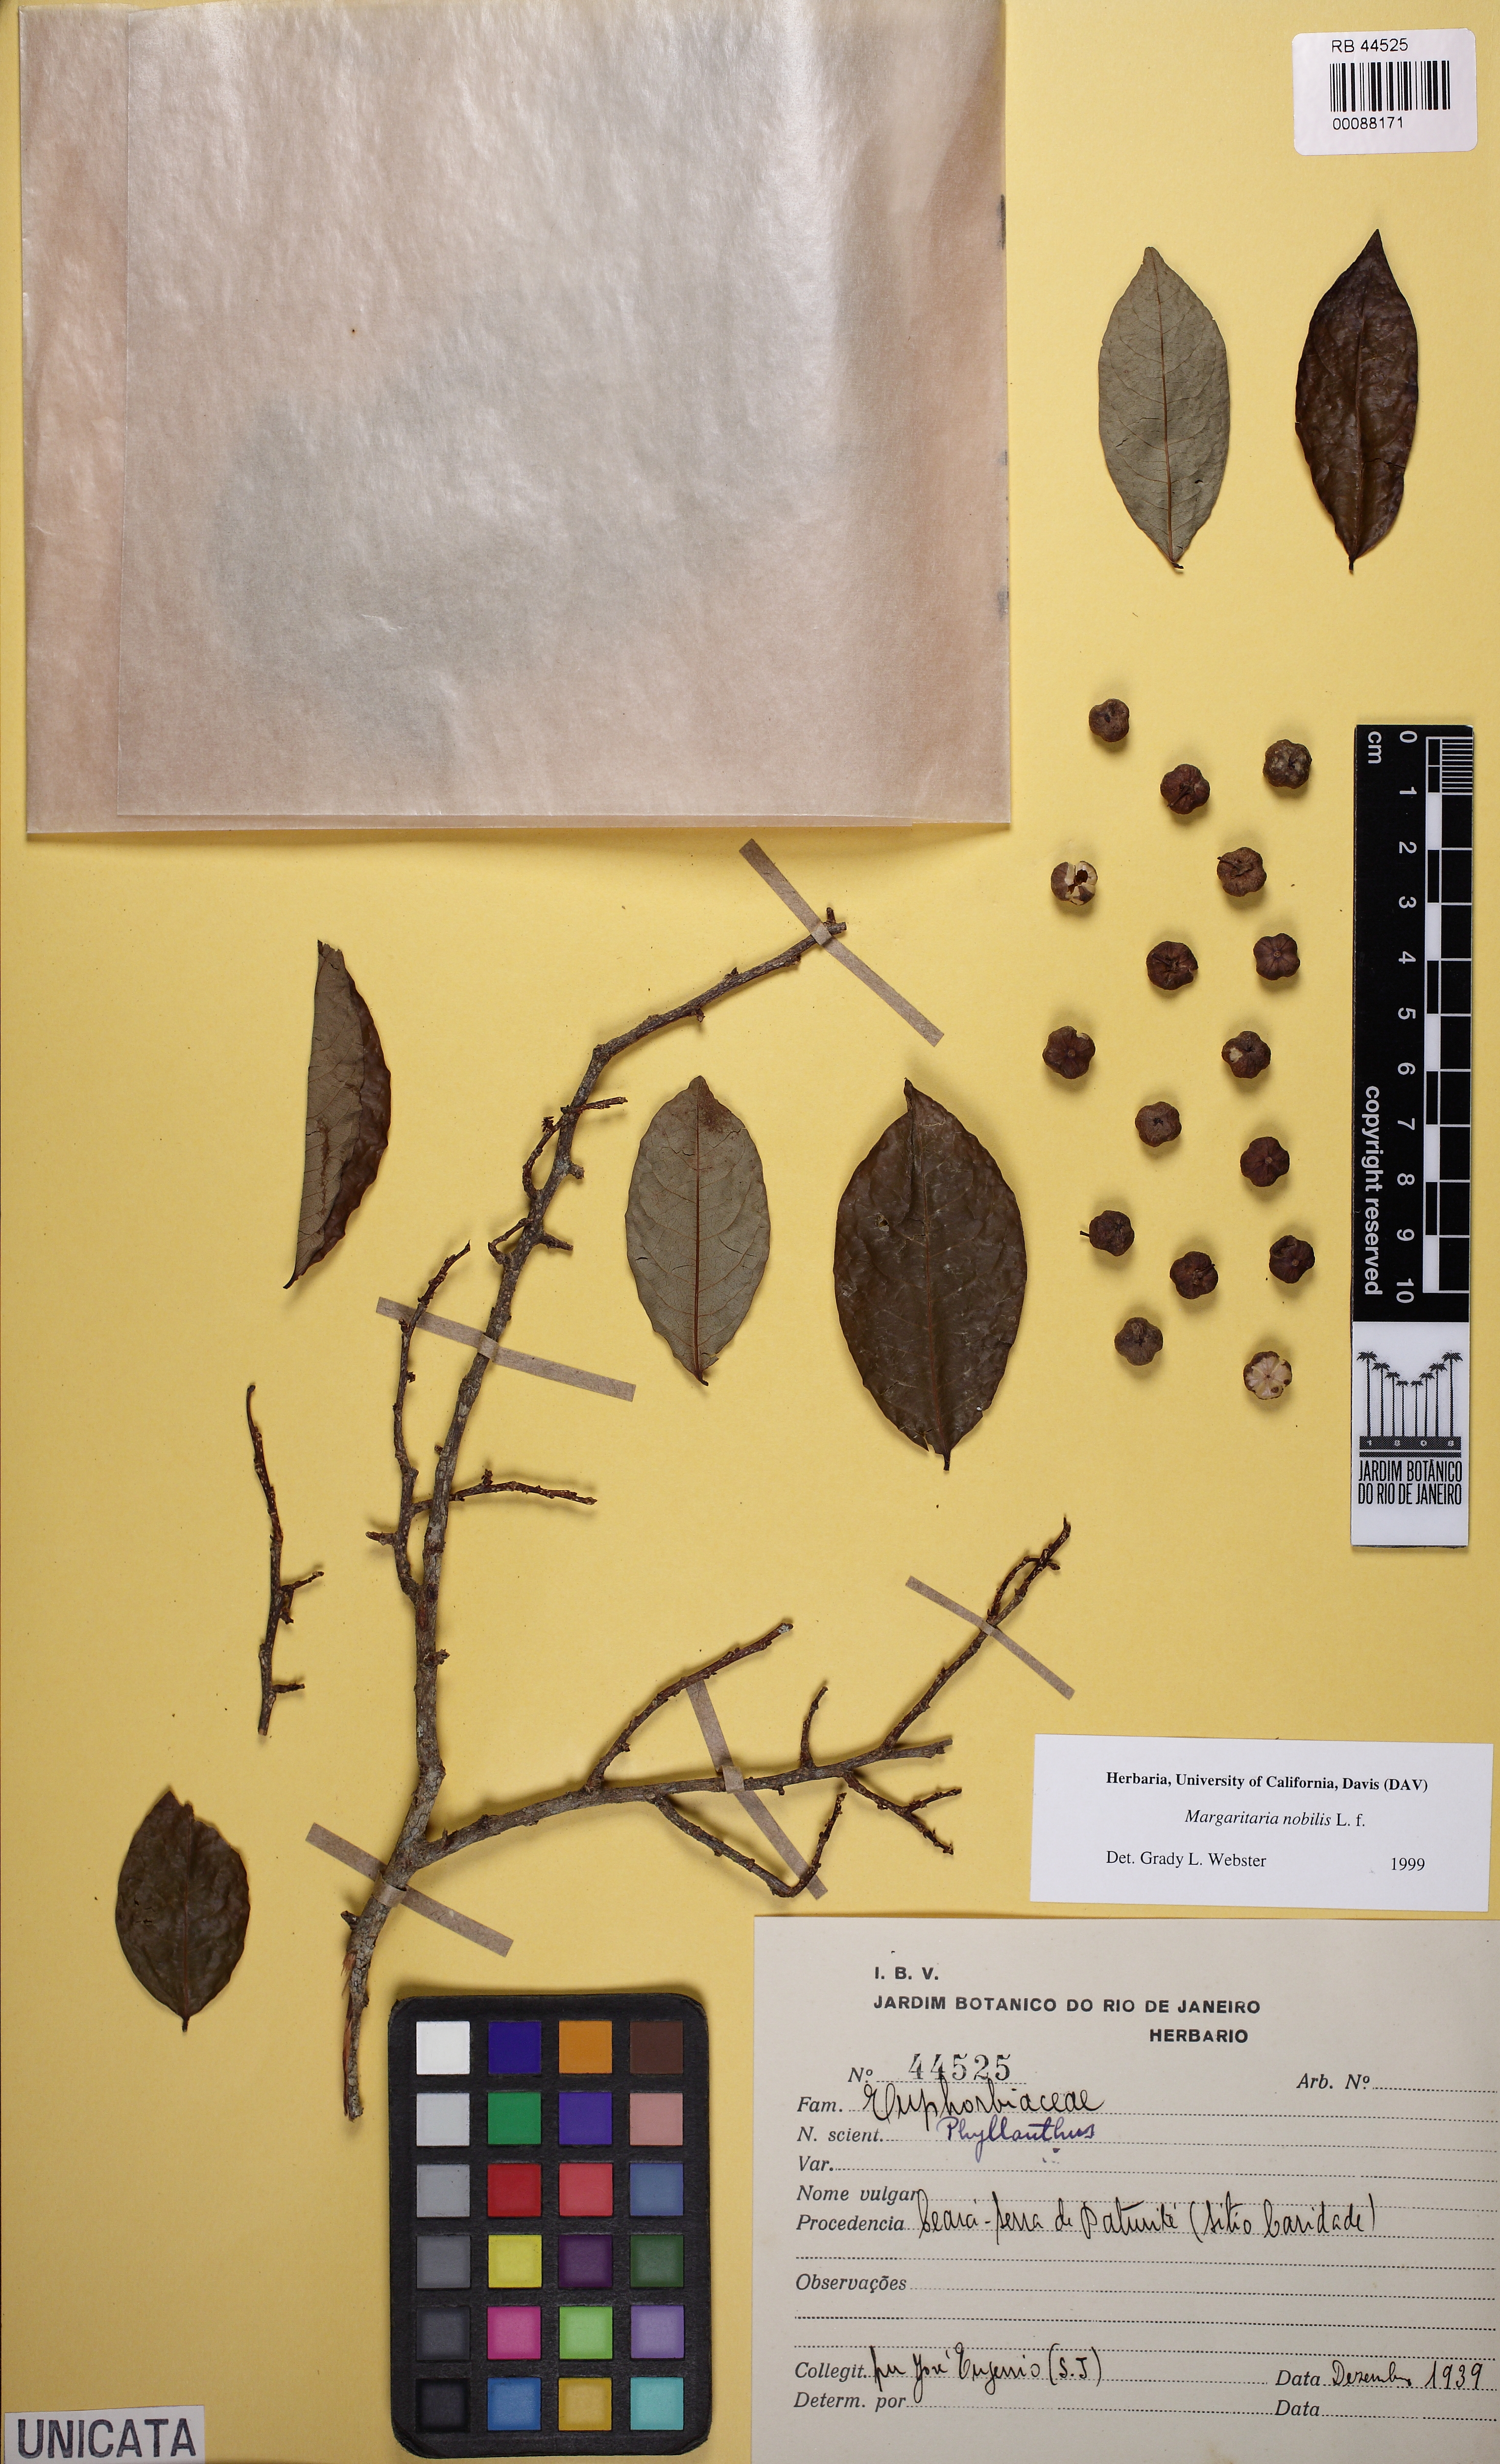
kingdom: Plantae
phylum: Tracheophyta
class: Magnoliopsida
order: Malpighiales
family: Phyllanthaceae
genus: Margaritaria
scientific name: Margaritaria nobilis
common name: Goose berry
